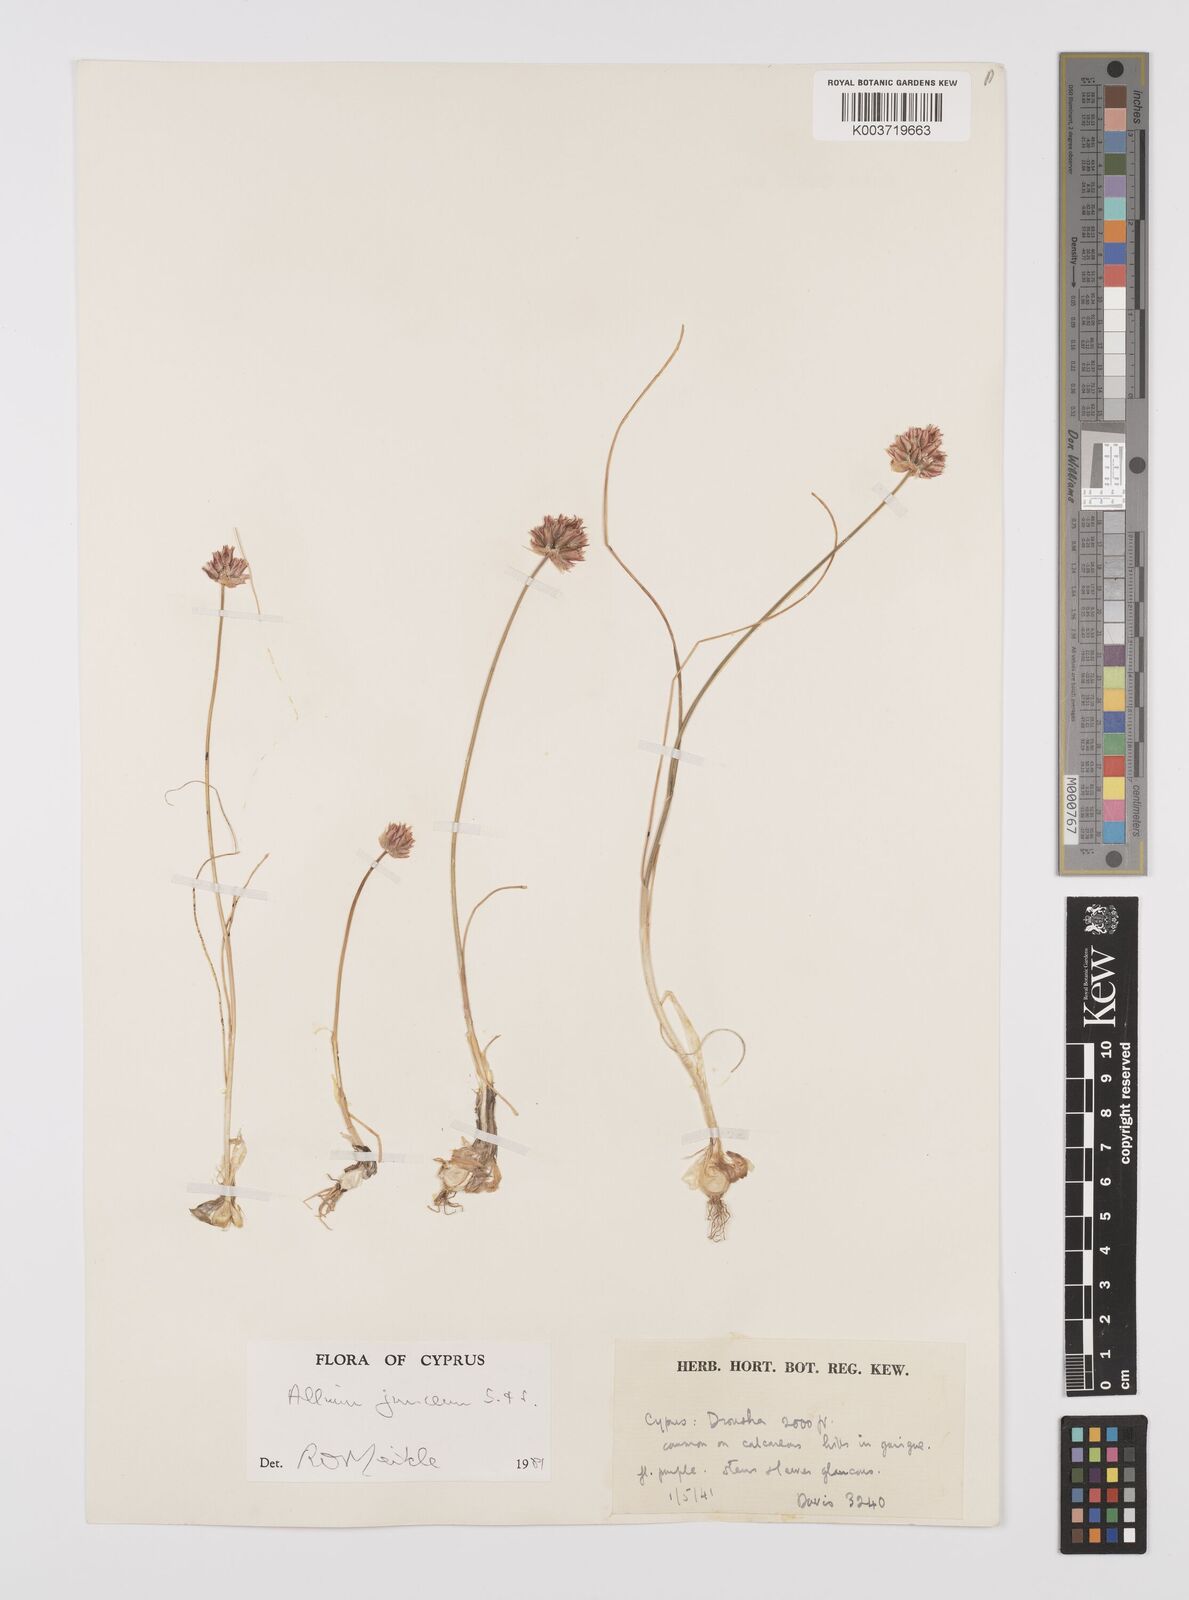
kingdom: Plantae
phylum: Tracheophyta
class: Liliopsida
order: Asparagales
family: Amaryllidaceae
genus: Allium
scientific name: Allium junceum
